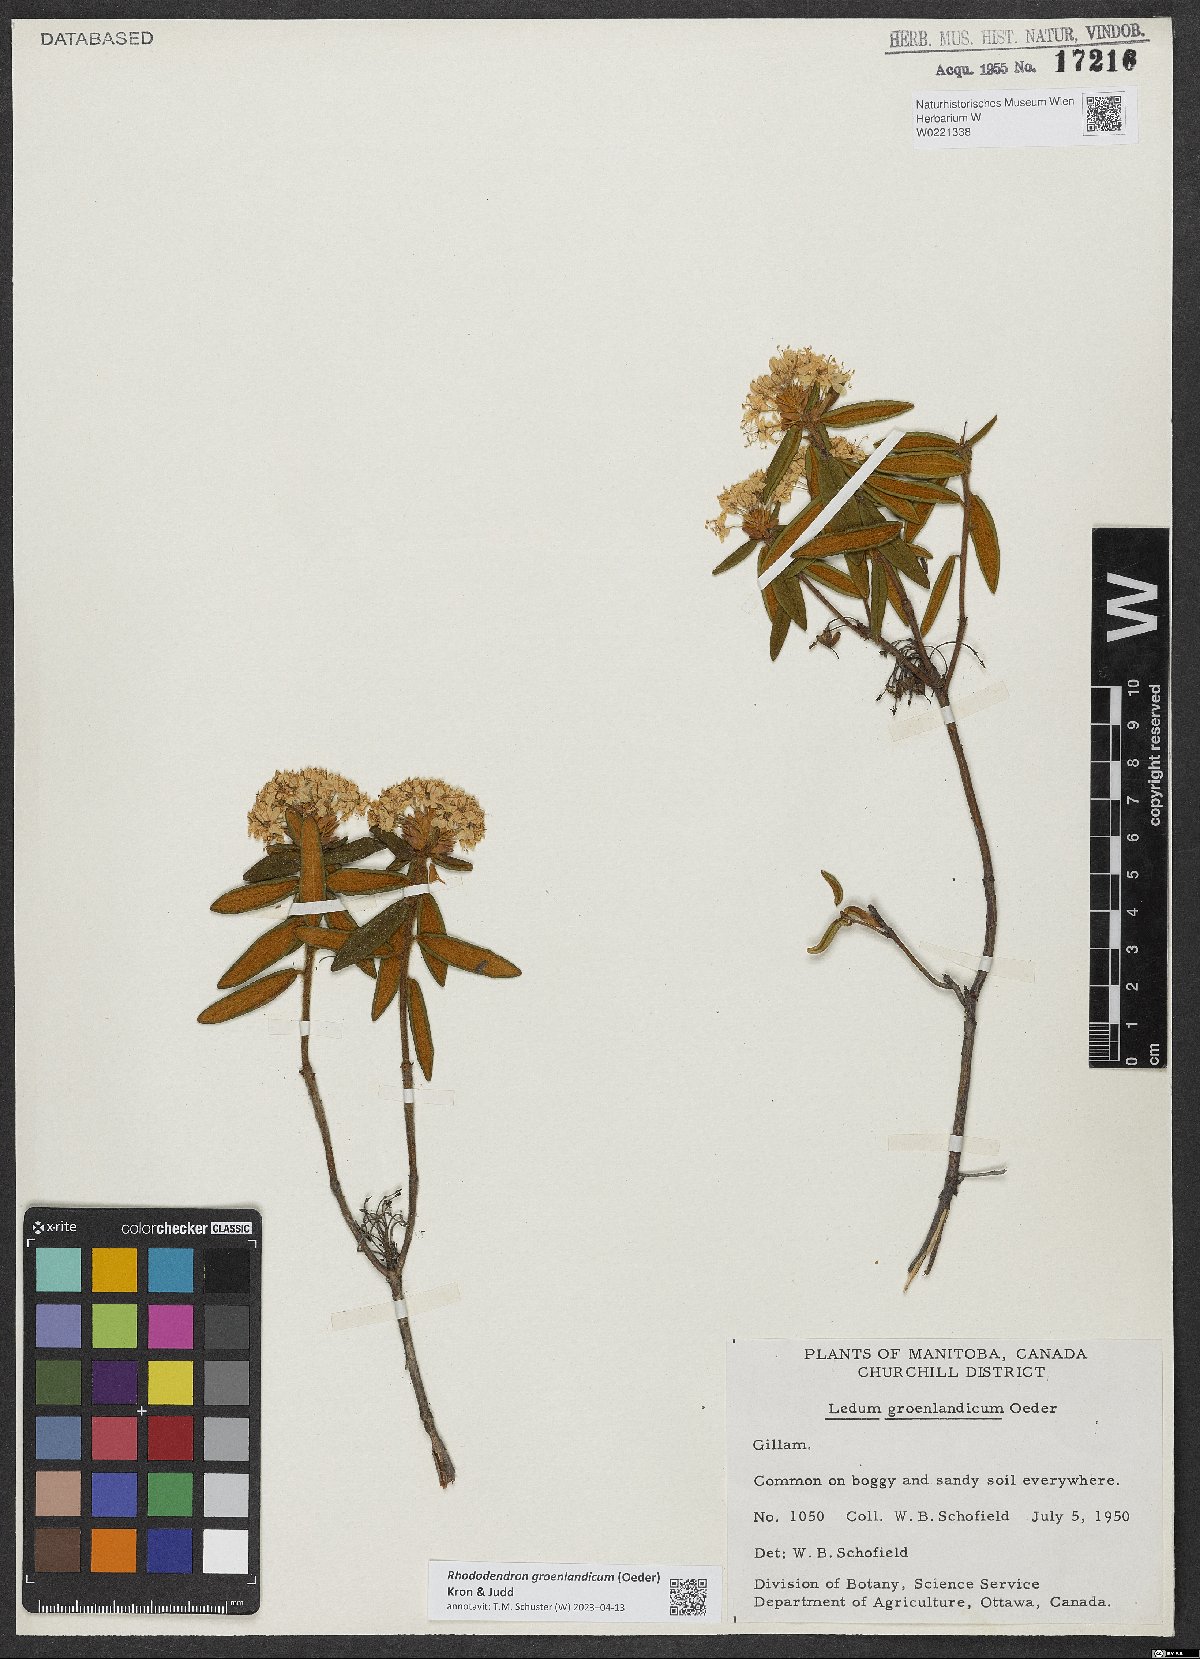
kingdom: Plantae
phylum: Tracheophyta
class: Magnoliopsida
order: Ericales
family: Ericaceae
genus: Rhododendron
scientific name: Rhododendron groenlandicum
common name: Bog labrador tea
